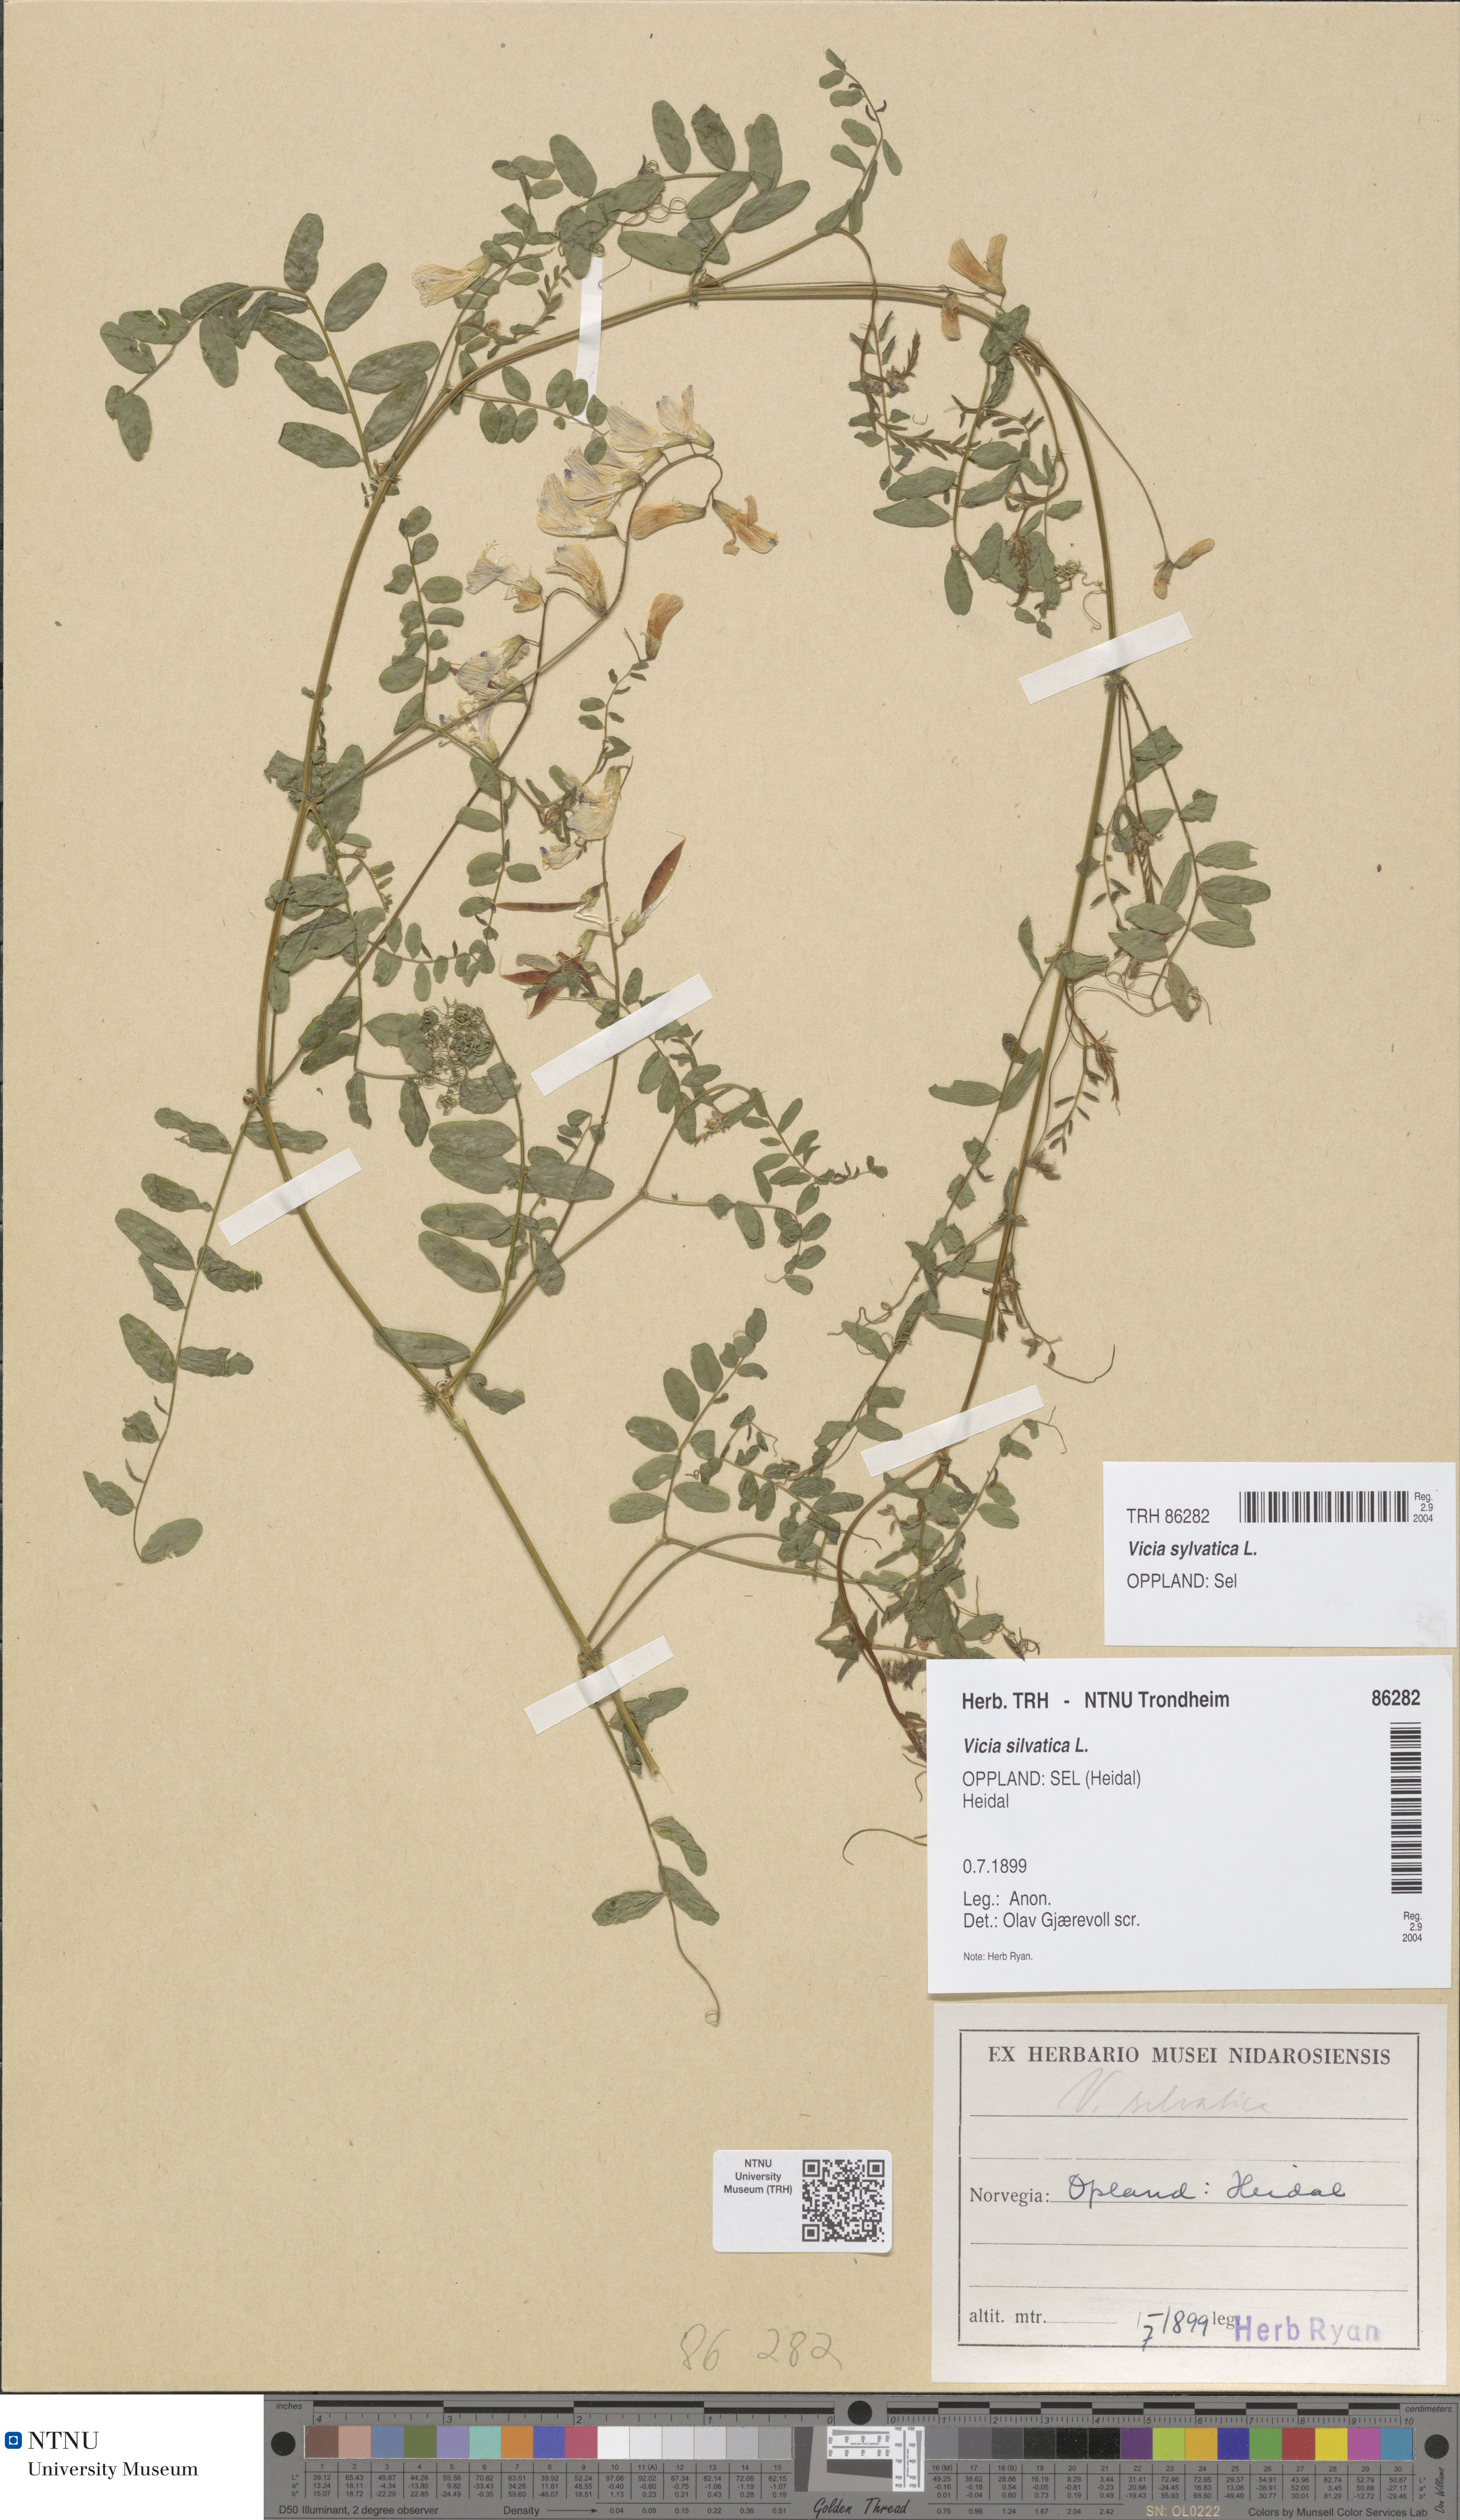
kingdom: Plantae
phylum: Tracheophyta
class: Magnoliopsida
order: Fabales
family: Fabaceae
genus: Vicia
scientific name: Vicia sylvatica
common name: Wood vetch
